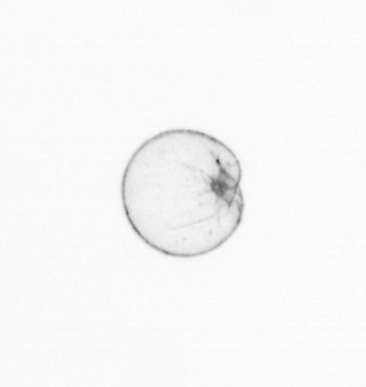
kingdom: Chromista
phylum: Myzozoa
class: Dinophyceae
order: Noctilucales
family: Noctilucaceae
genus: Noctiluca
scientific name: Noctiluca scintillans
